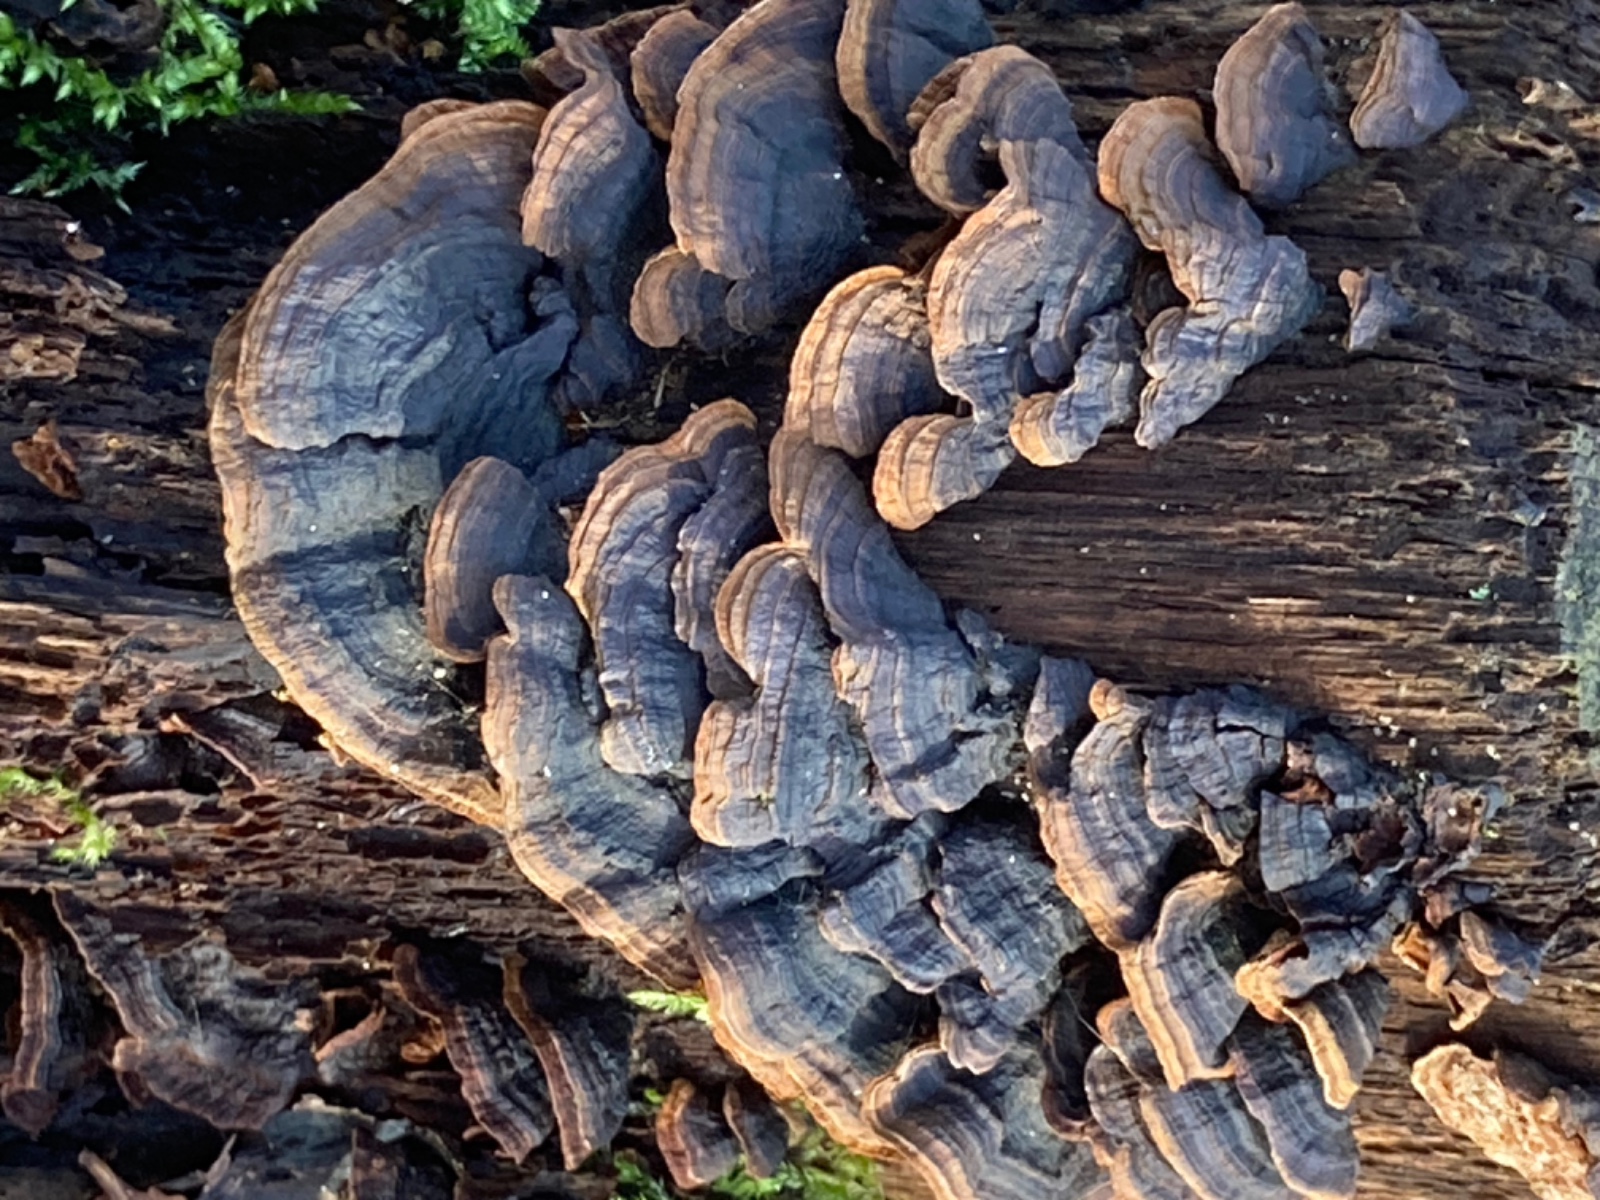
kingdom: Fungi
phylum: Basidiomycota
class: Agaricomycetes
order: Hymenochaetales
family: Hymenochaetaceae
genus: Hymenochaete
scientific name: Hymenochaete rubiginosa
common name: stiv ruslædersvamp
